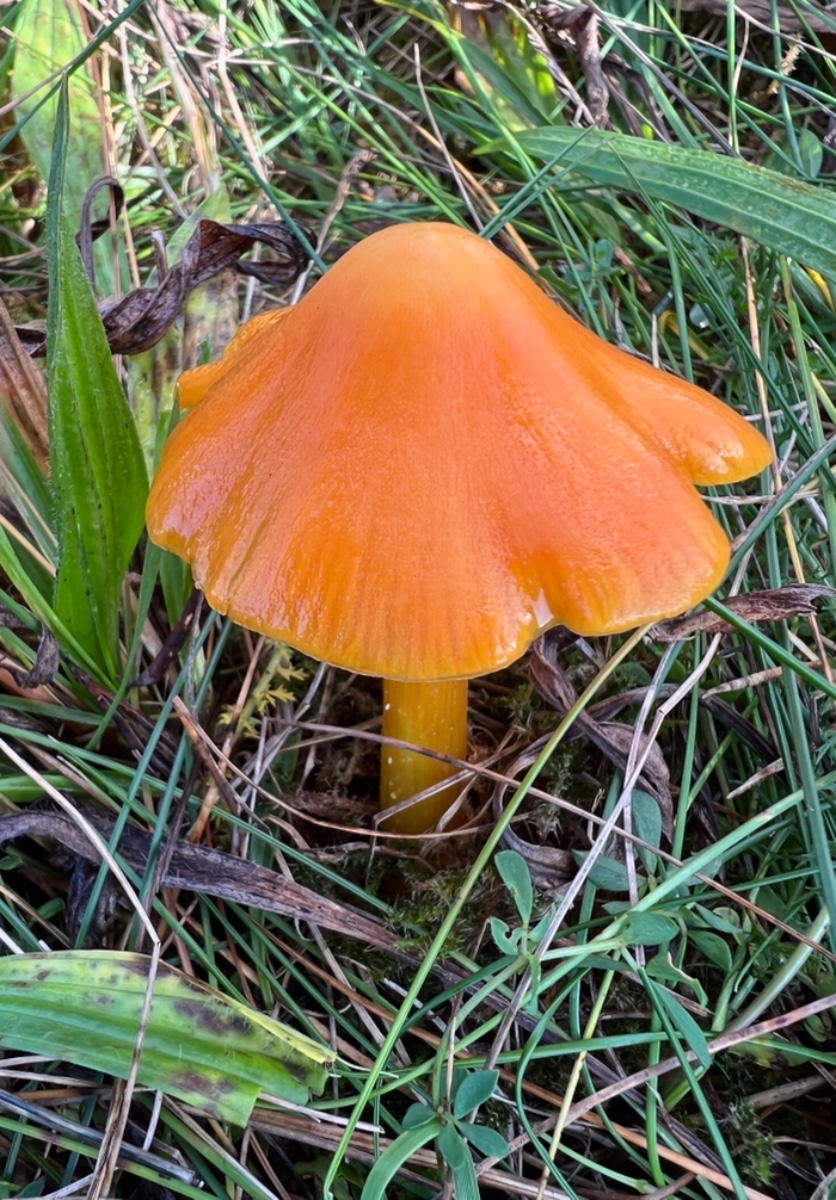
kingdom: Fungi
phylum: Basidiomycota
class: Agaricomycetes
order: Agaricales
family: Hygrophoraceae
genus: Hygrocybe
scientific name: Hygrocybe acutoconica
